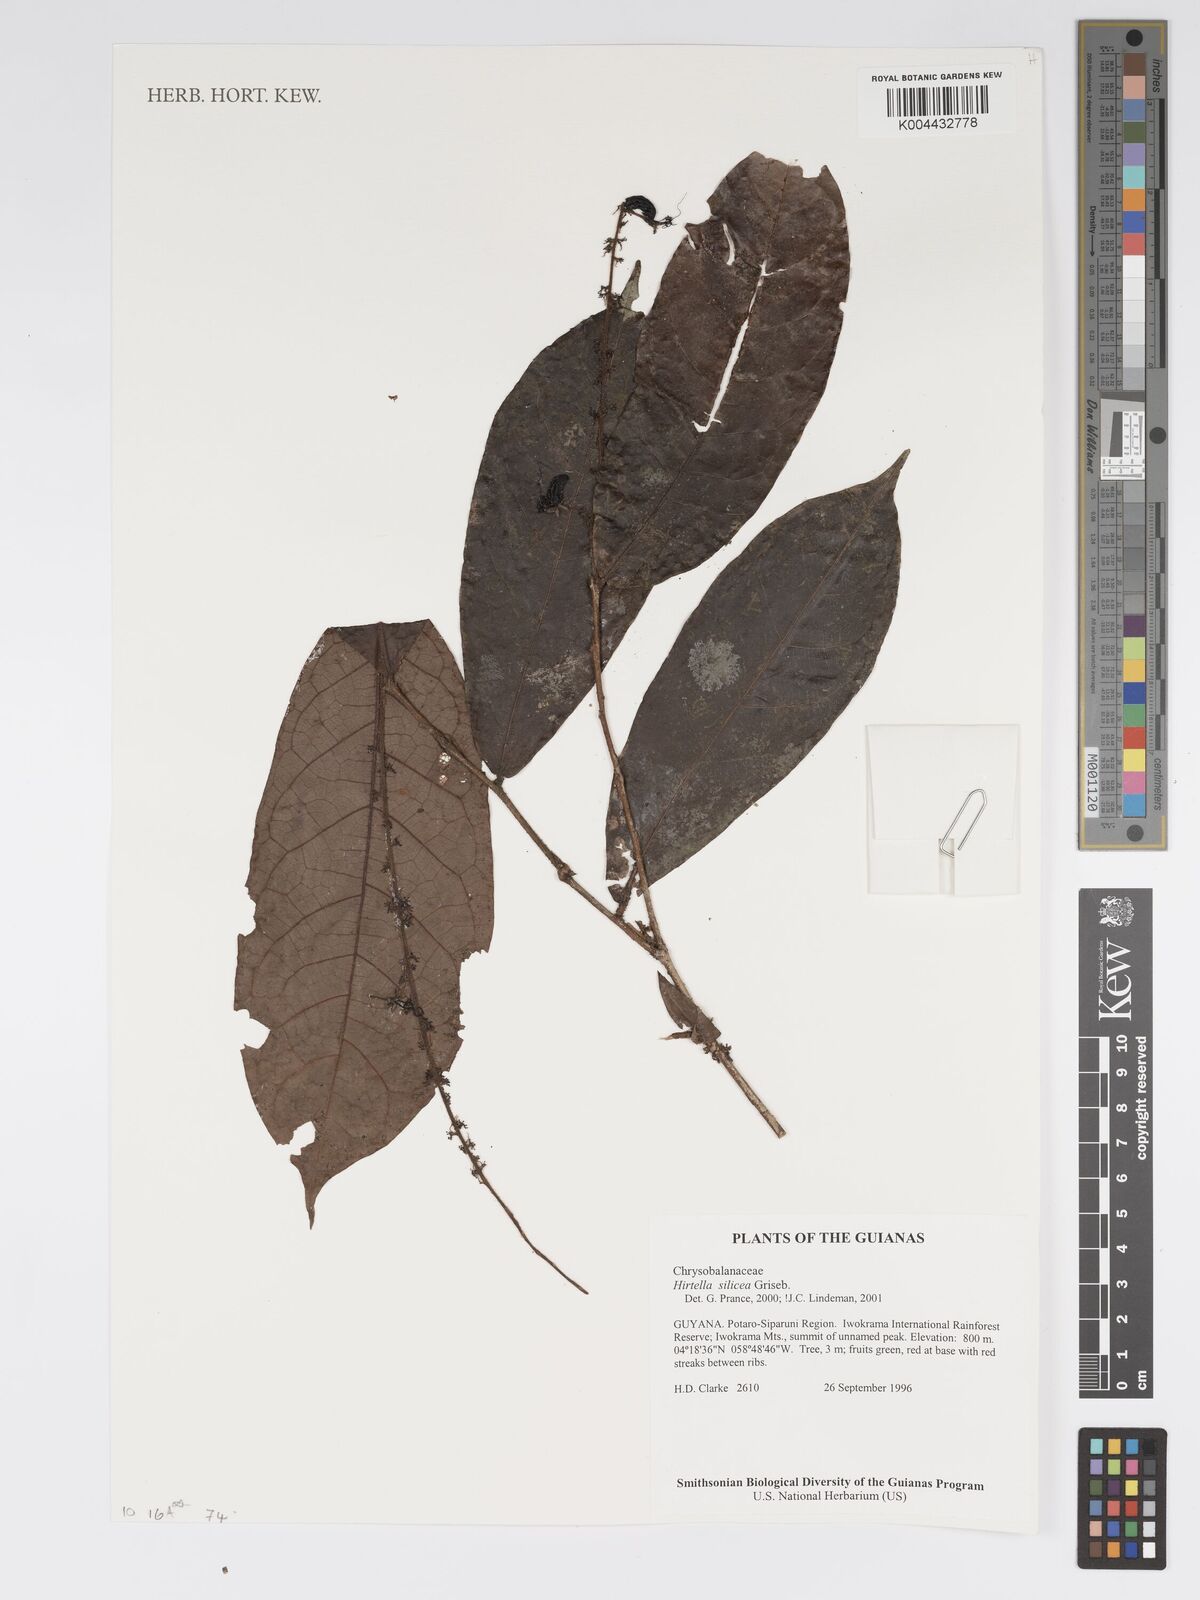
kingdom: Plantae
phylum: Tracheophyta
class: Magnoliopsida
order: Malpighiales
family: Chrysobalanaceae
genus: Hirtella
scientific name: Hirtella silicea
